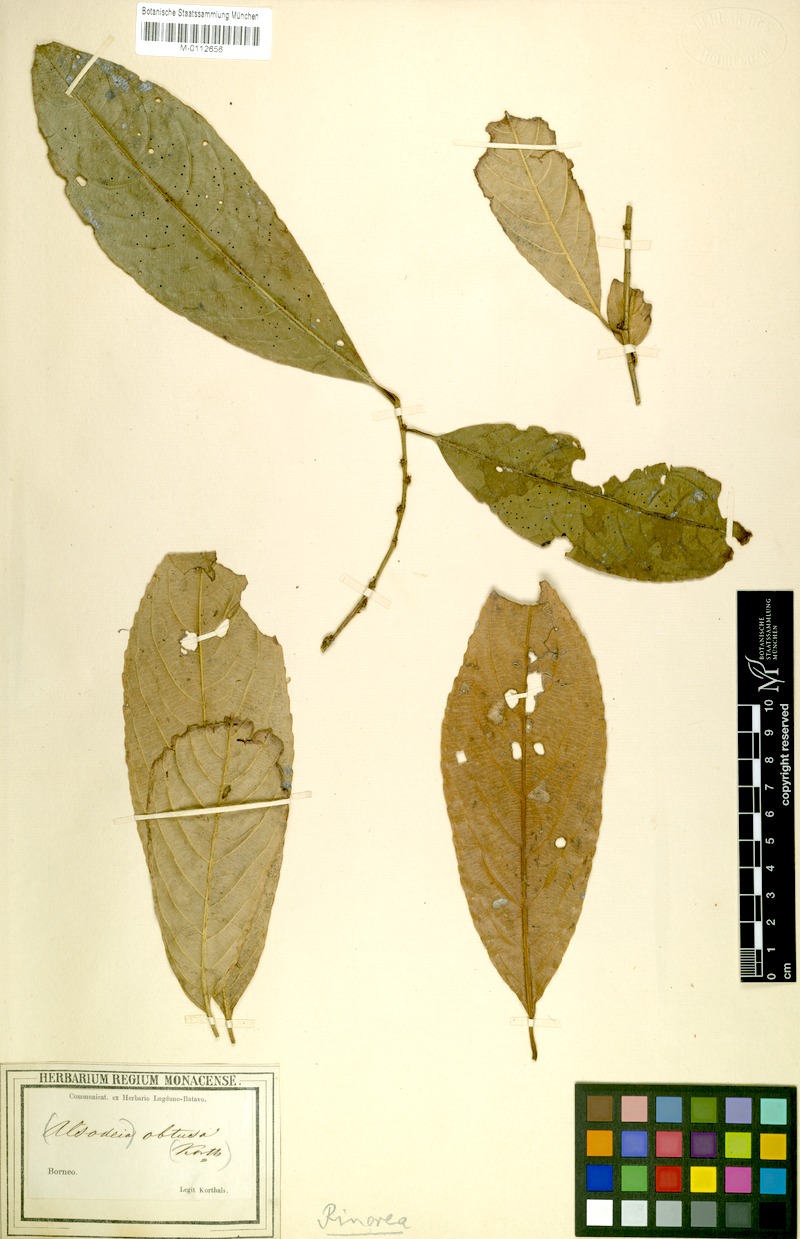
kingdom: Plantae
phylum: Tracheophyta
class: Magnoliopsida
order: Malpighiales
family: Violaceae
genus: Rinorea
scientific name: Rinorea bengalensis
